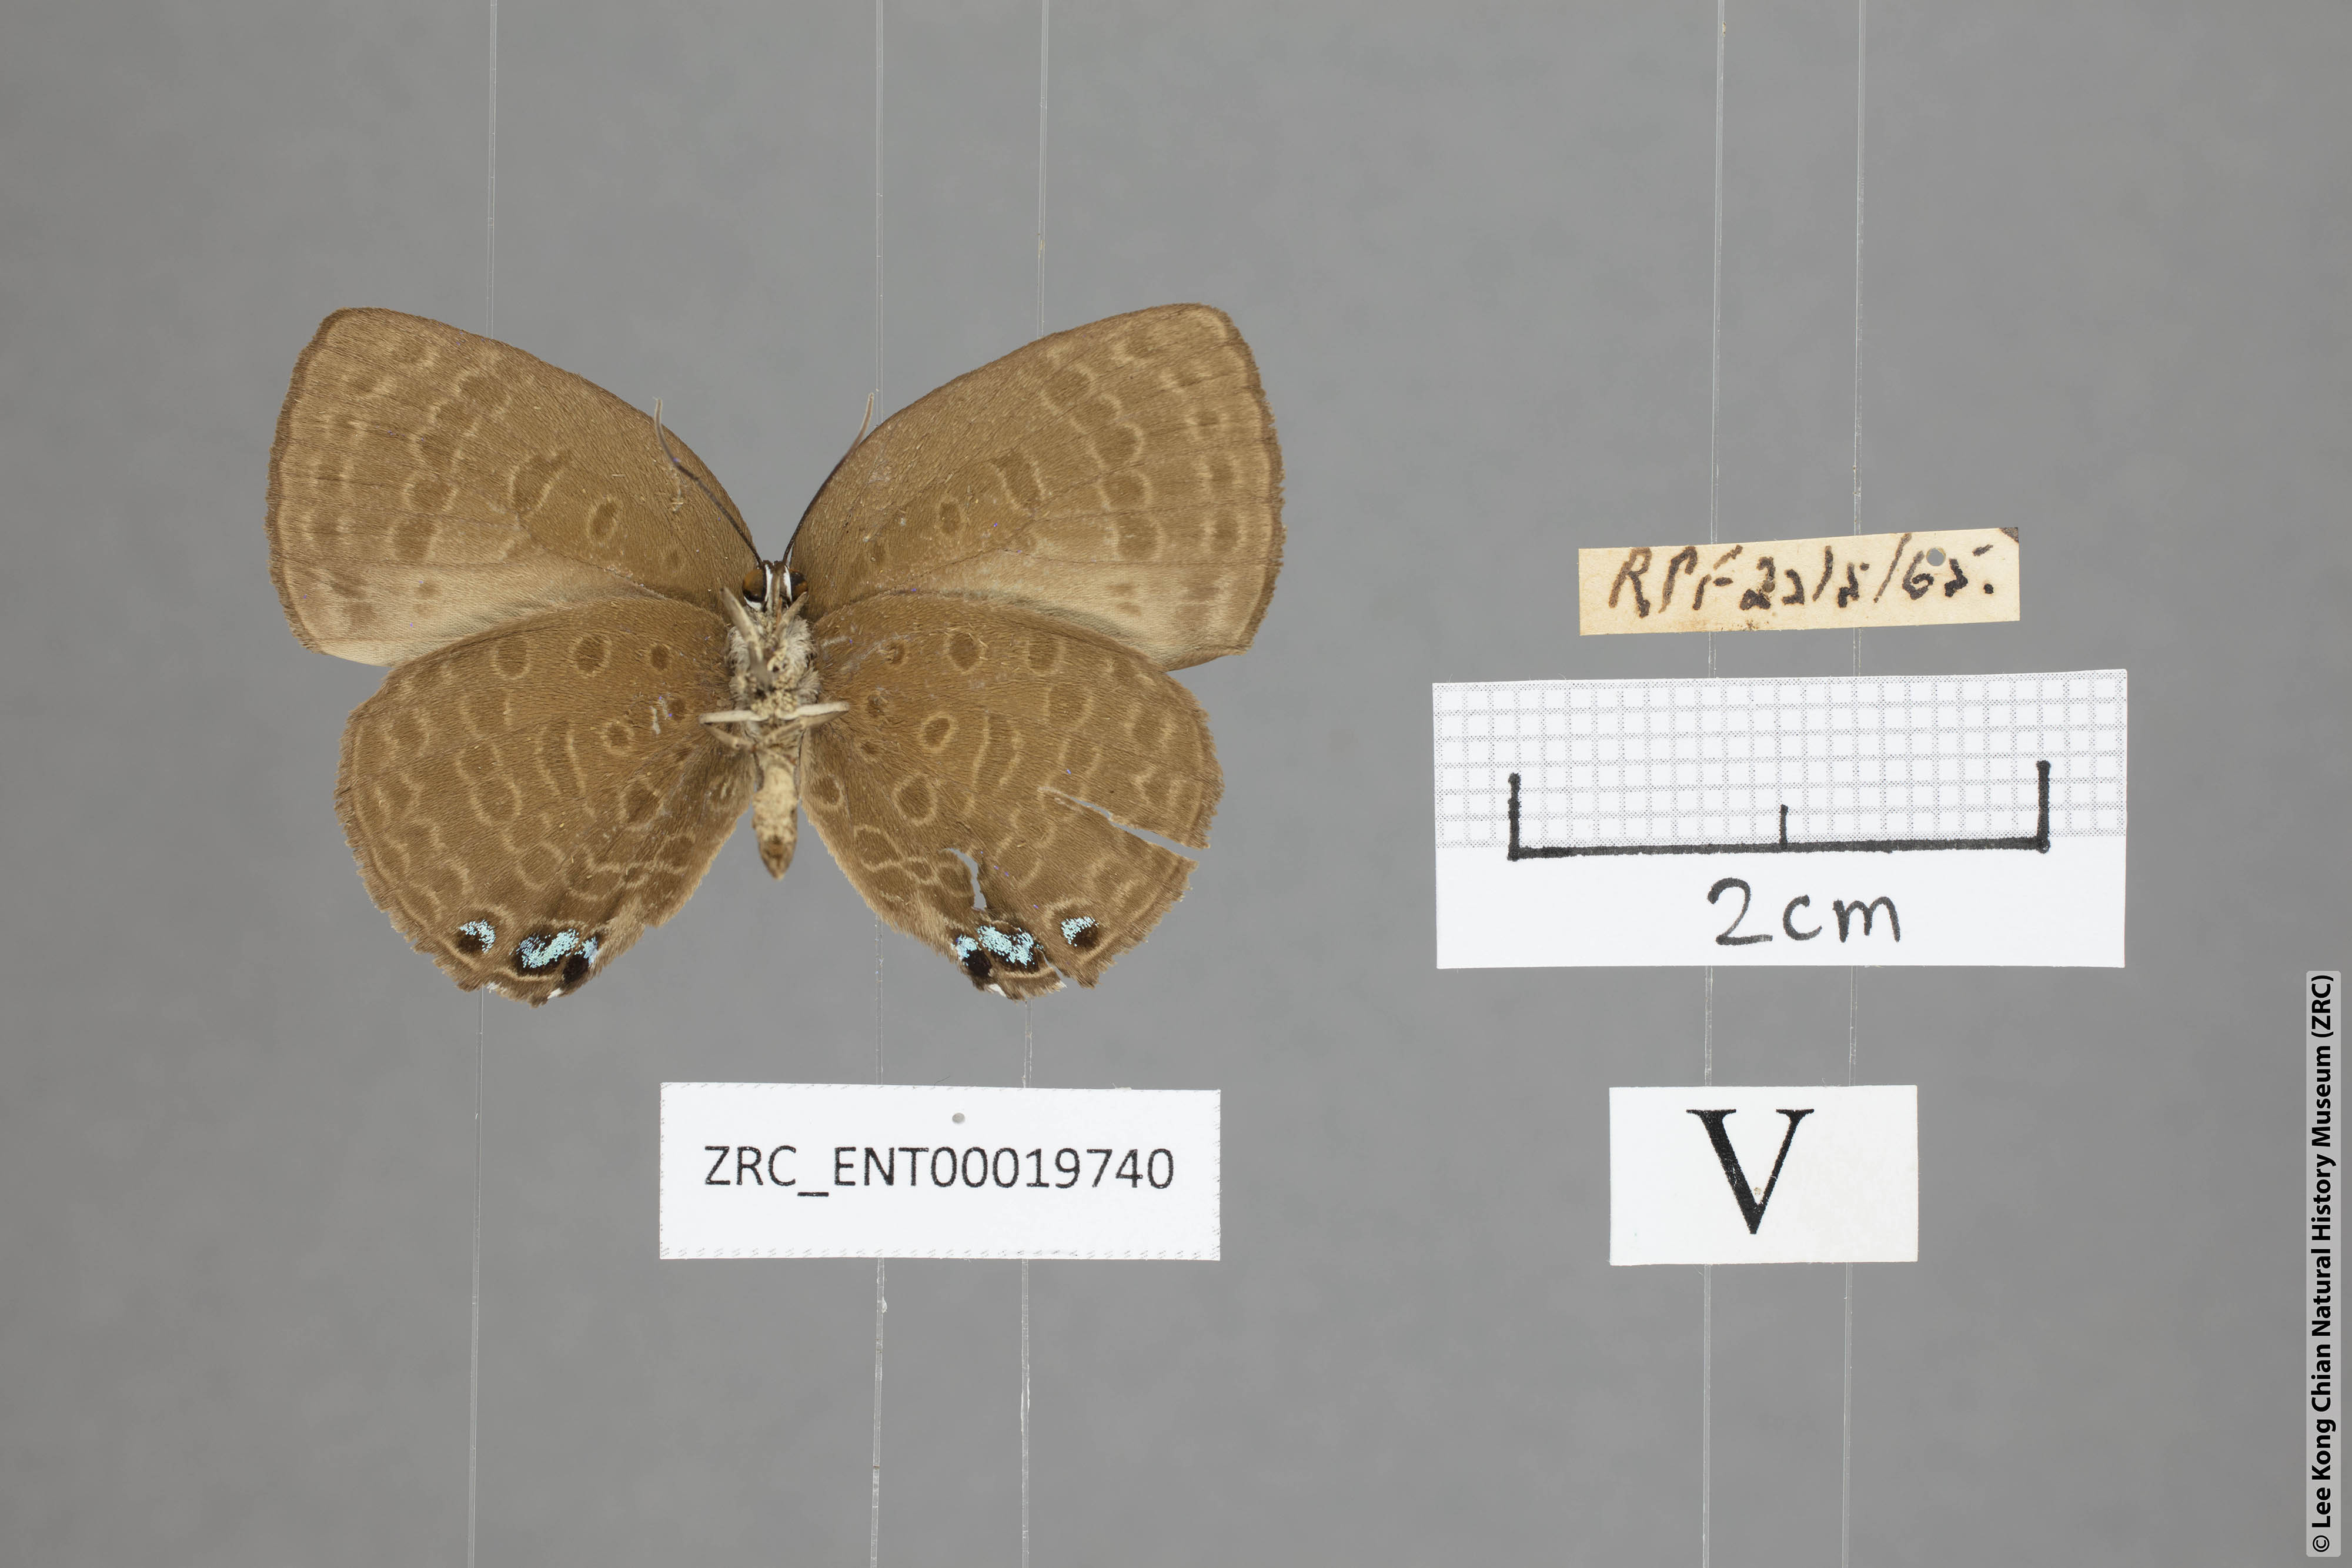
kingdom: Animalia
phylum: Arthropoda
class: Insecta
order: Lepidoptera
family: Lycaenidae
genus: Arhopala
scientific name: Arhopala
